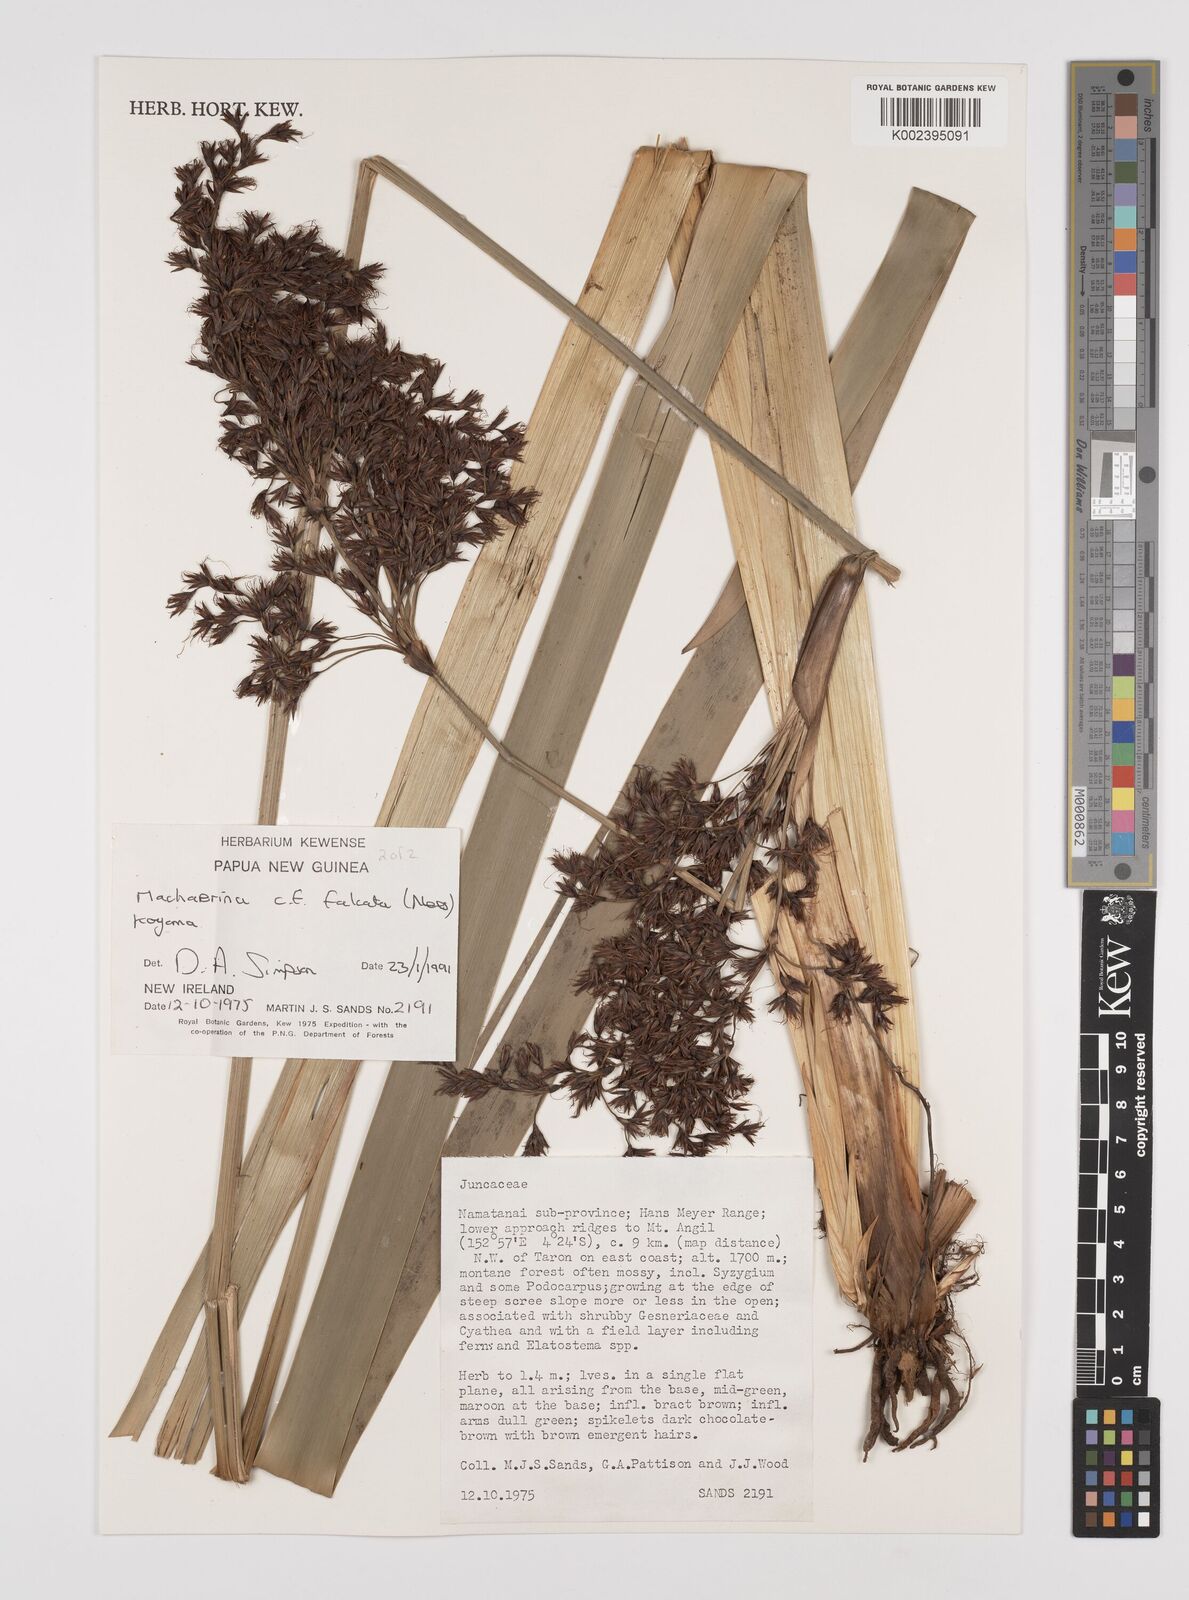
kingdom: Plantae
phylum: Tracheophyta
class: Liliopsida
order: Poales
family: Cyperaceae
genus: Machaerina
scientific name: Machaerina falcata
